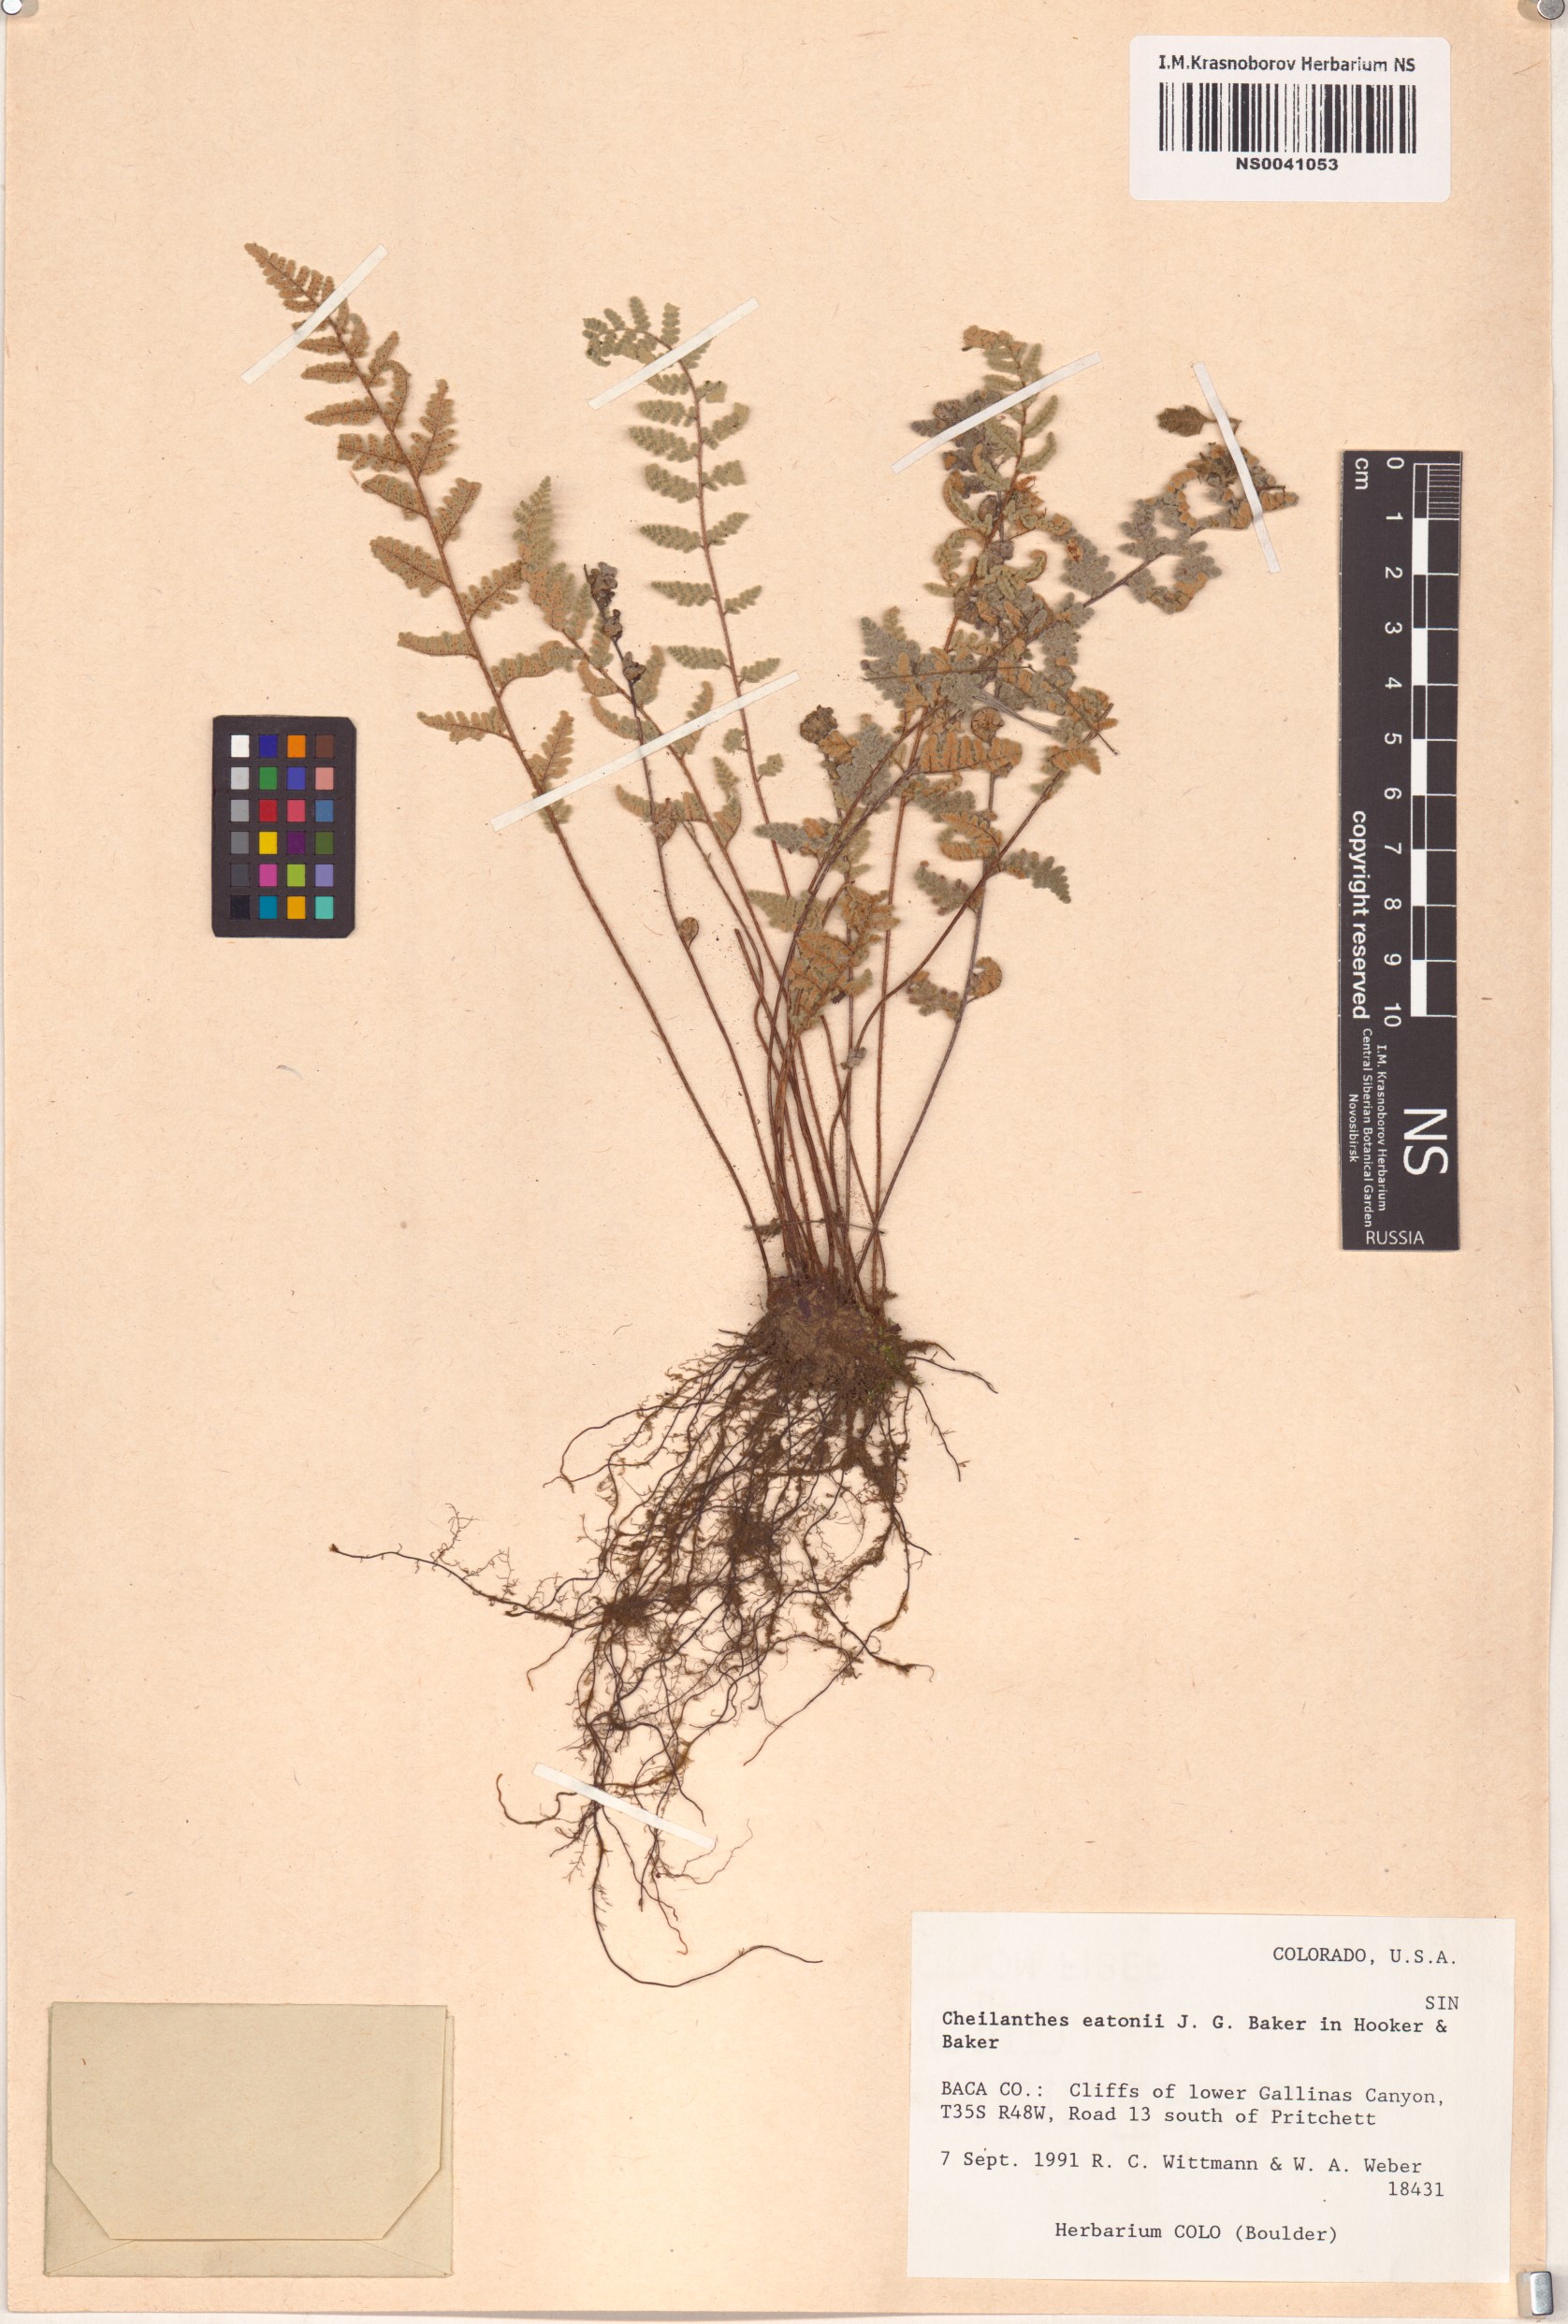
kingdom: Plantae
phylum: Tracheophyta
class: Polypodiopsida
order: Polypodiales
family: Pteridaceae
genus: Myriopteris
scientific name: Myriopteris rufa
